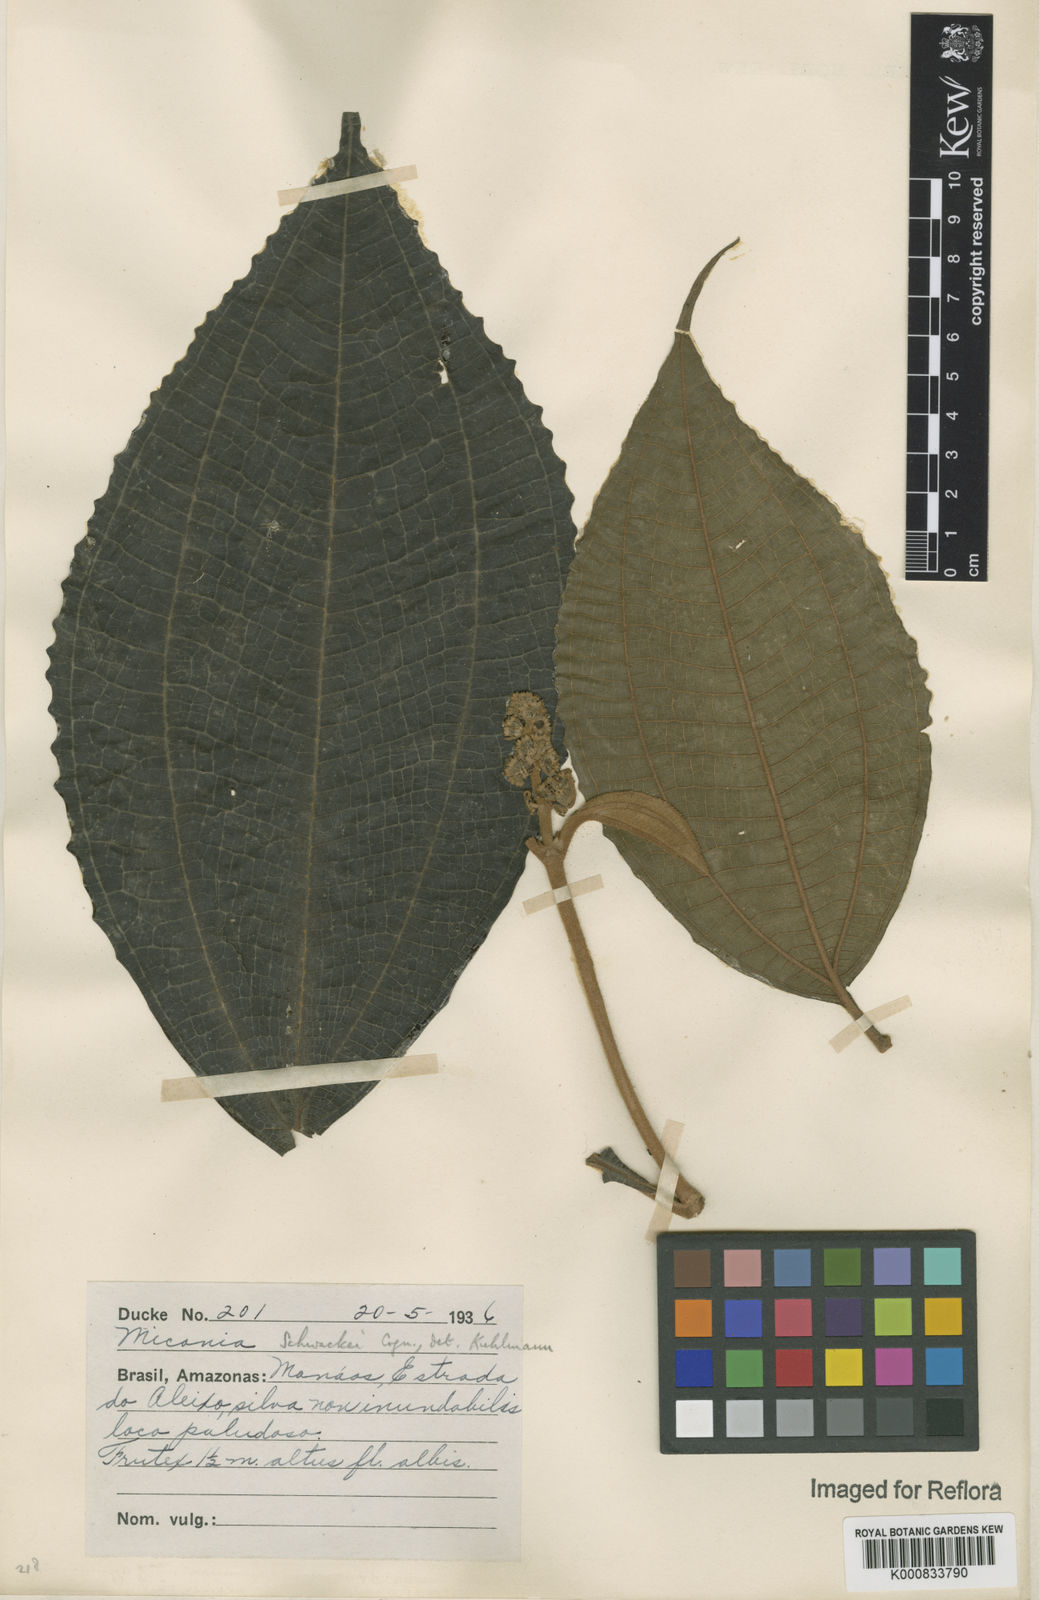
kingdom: Plantae
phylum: Tracheophyta
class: Magnoliopsida
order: Myrtales
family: Melastomataceae
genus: Miconia
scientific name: Miconia schwackei
